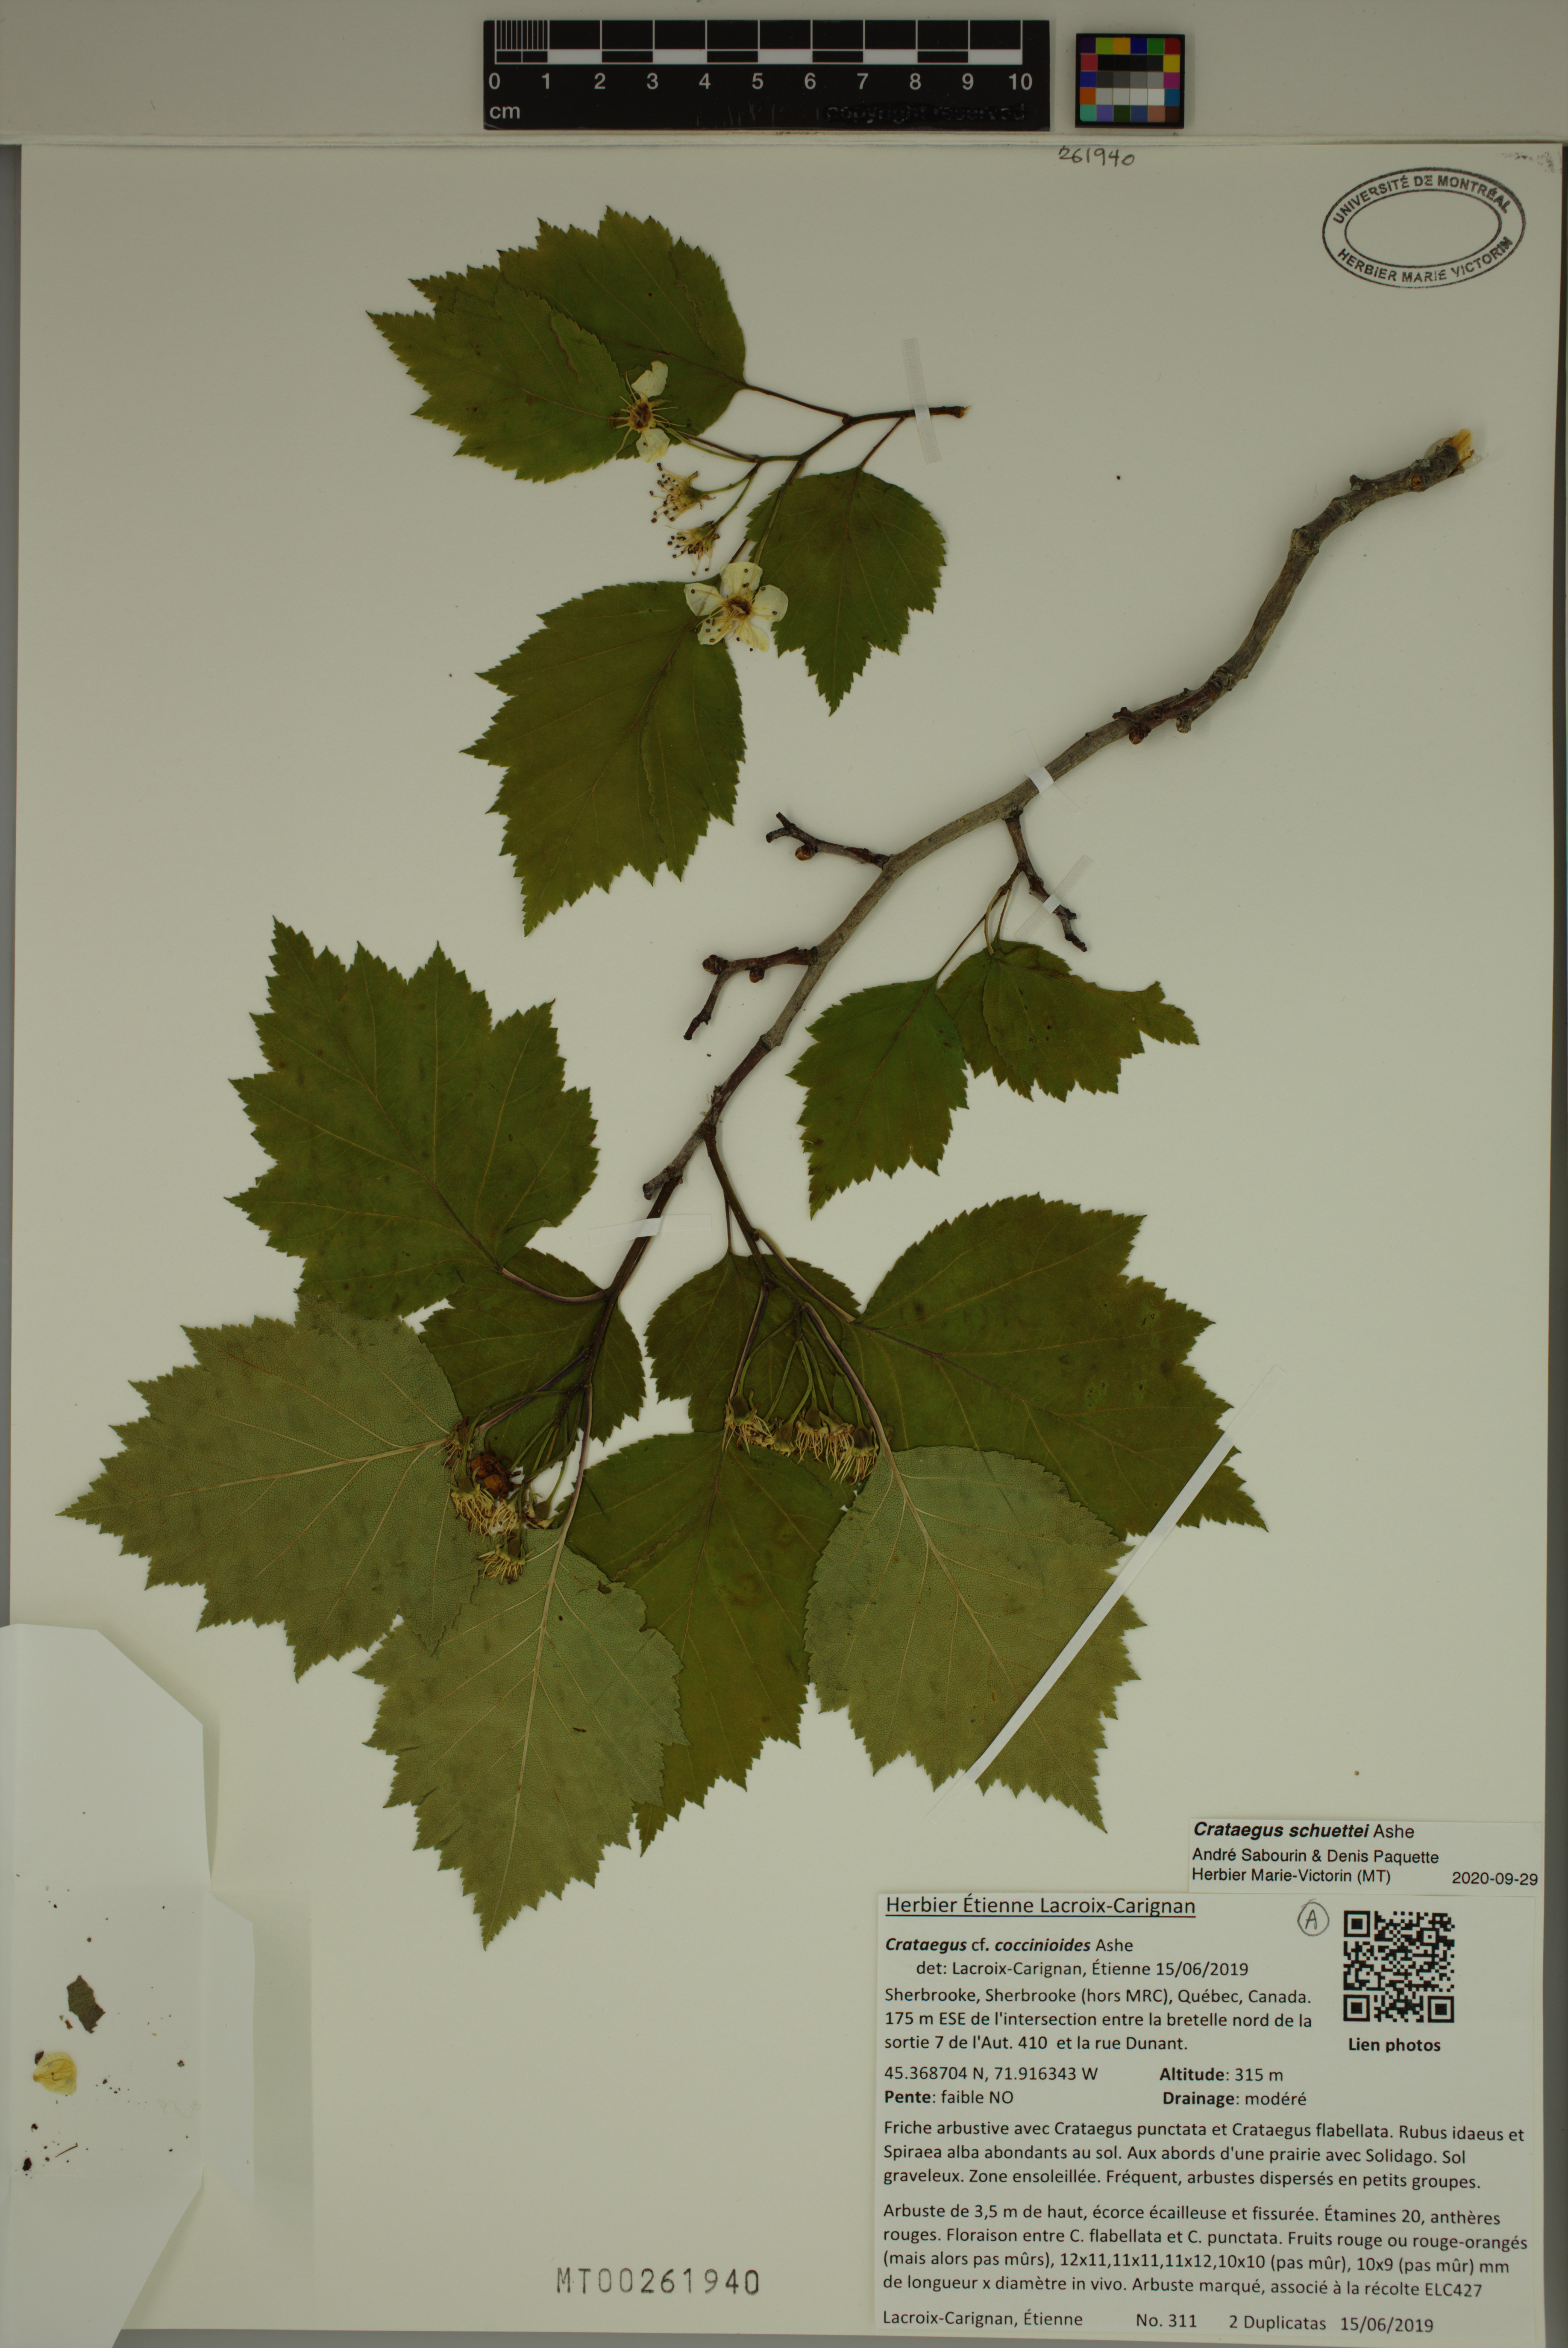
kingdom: Plantae
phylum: Tracheophyta
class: Magnoliopsida
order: Rosales
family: Rosaceae
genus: Crataegus
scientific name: Crataegus schuettei
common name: Schuette's hawthorn
